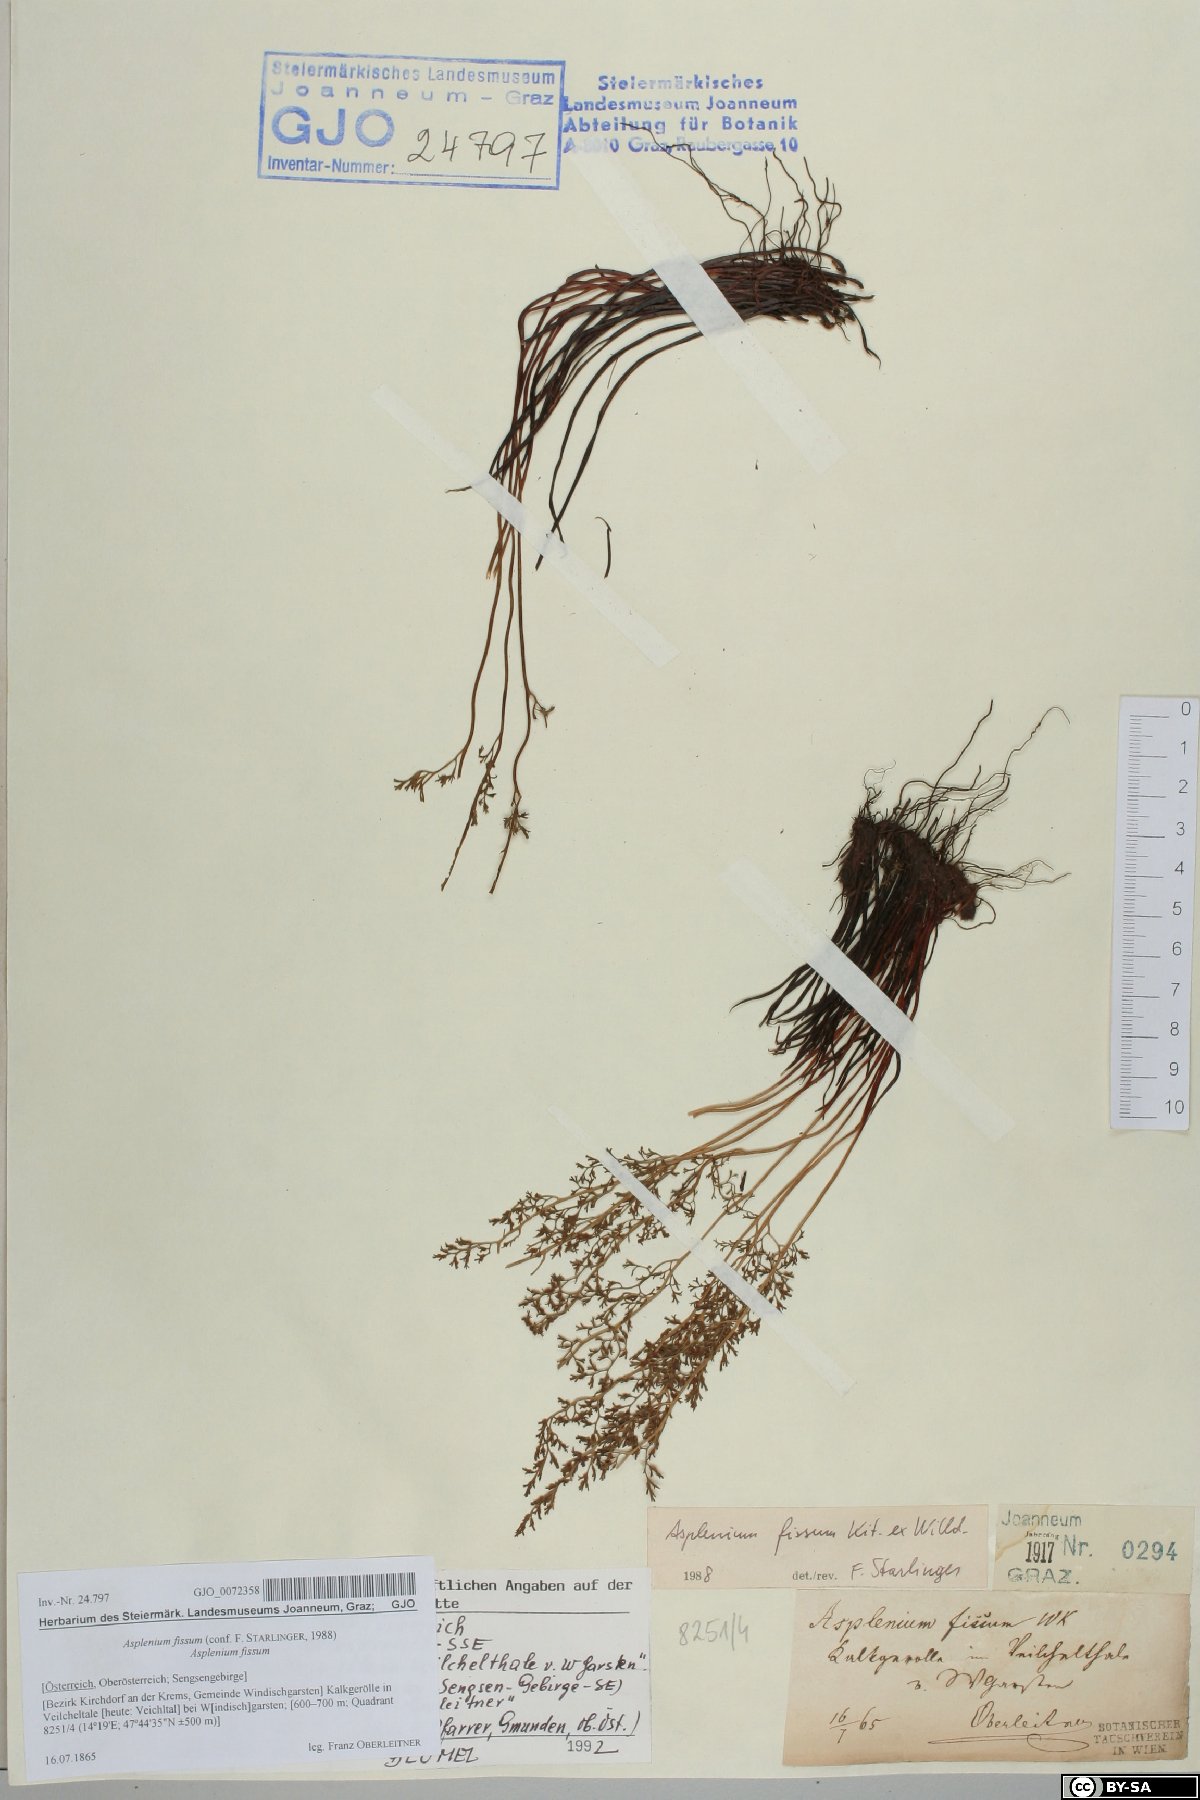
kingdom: Plantae
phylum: Tracheophyta
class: Polypodiopsida
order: Polypodiales
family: Aspleniaceae
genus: Asplenium
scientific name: Asplenium fissum
